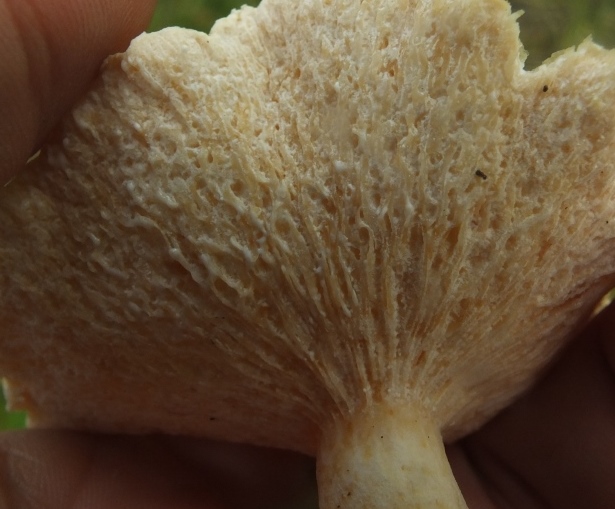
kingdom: Fungi
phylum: Ascomycota
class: Sordariomycetes
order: Hypocreales
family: Hypocreaceae
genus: Hypomyces
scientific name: Hypomyces spadiceus
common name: mælkeskæg-snylteskorpe
